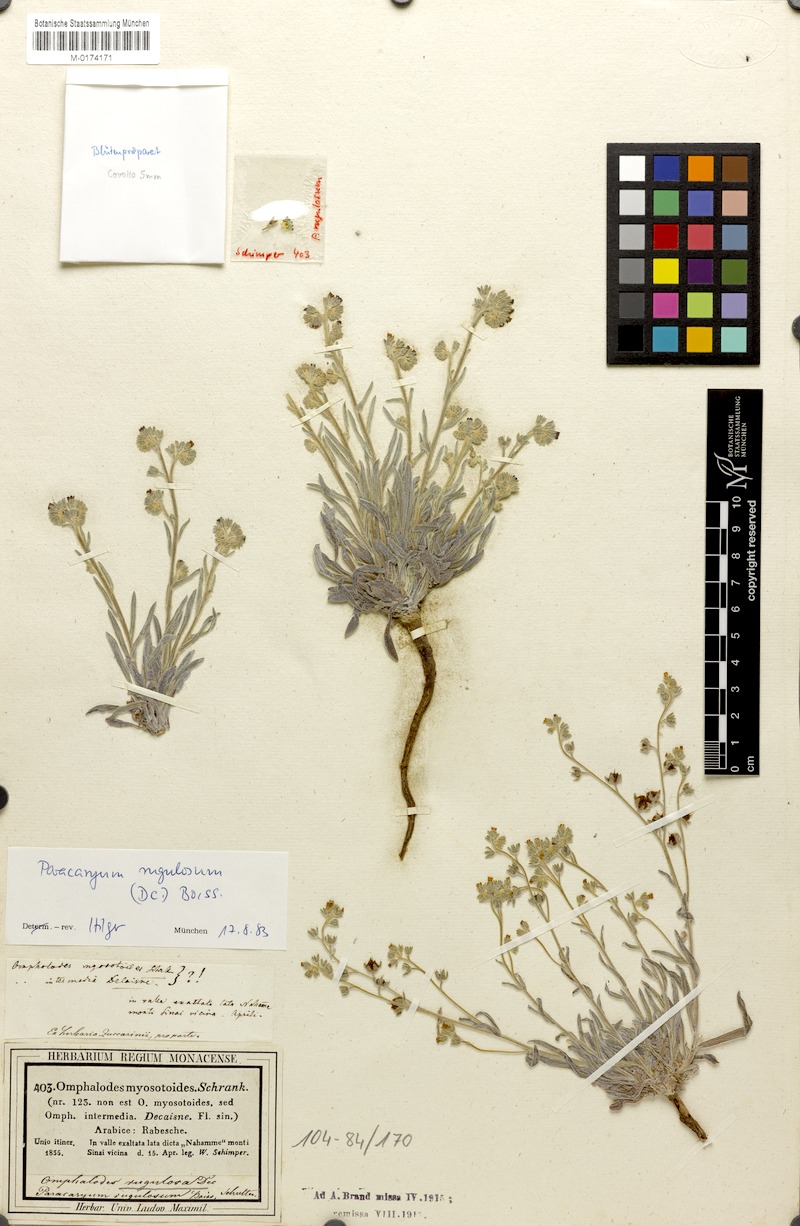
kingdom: Plantae
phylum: Tracheophyta
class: Magnoliopsida
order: Boraginales
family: Boraginaceae
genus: Paracaryum
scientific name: Paracaryum rugulosum
